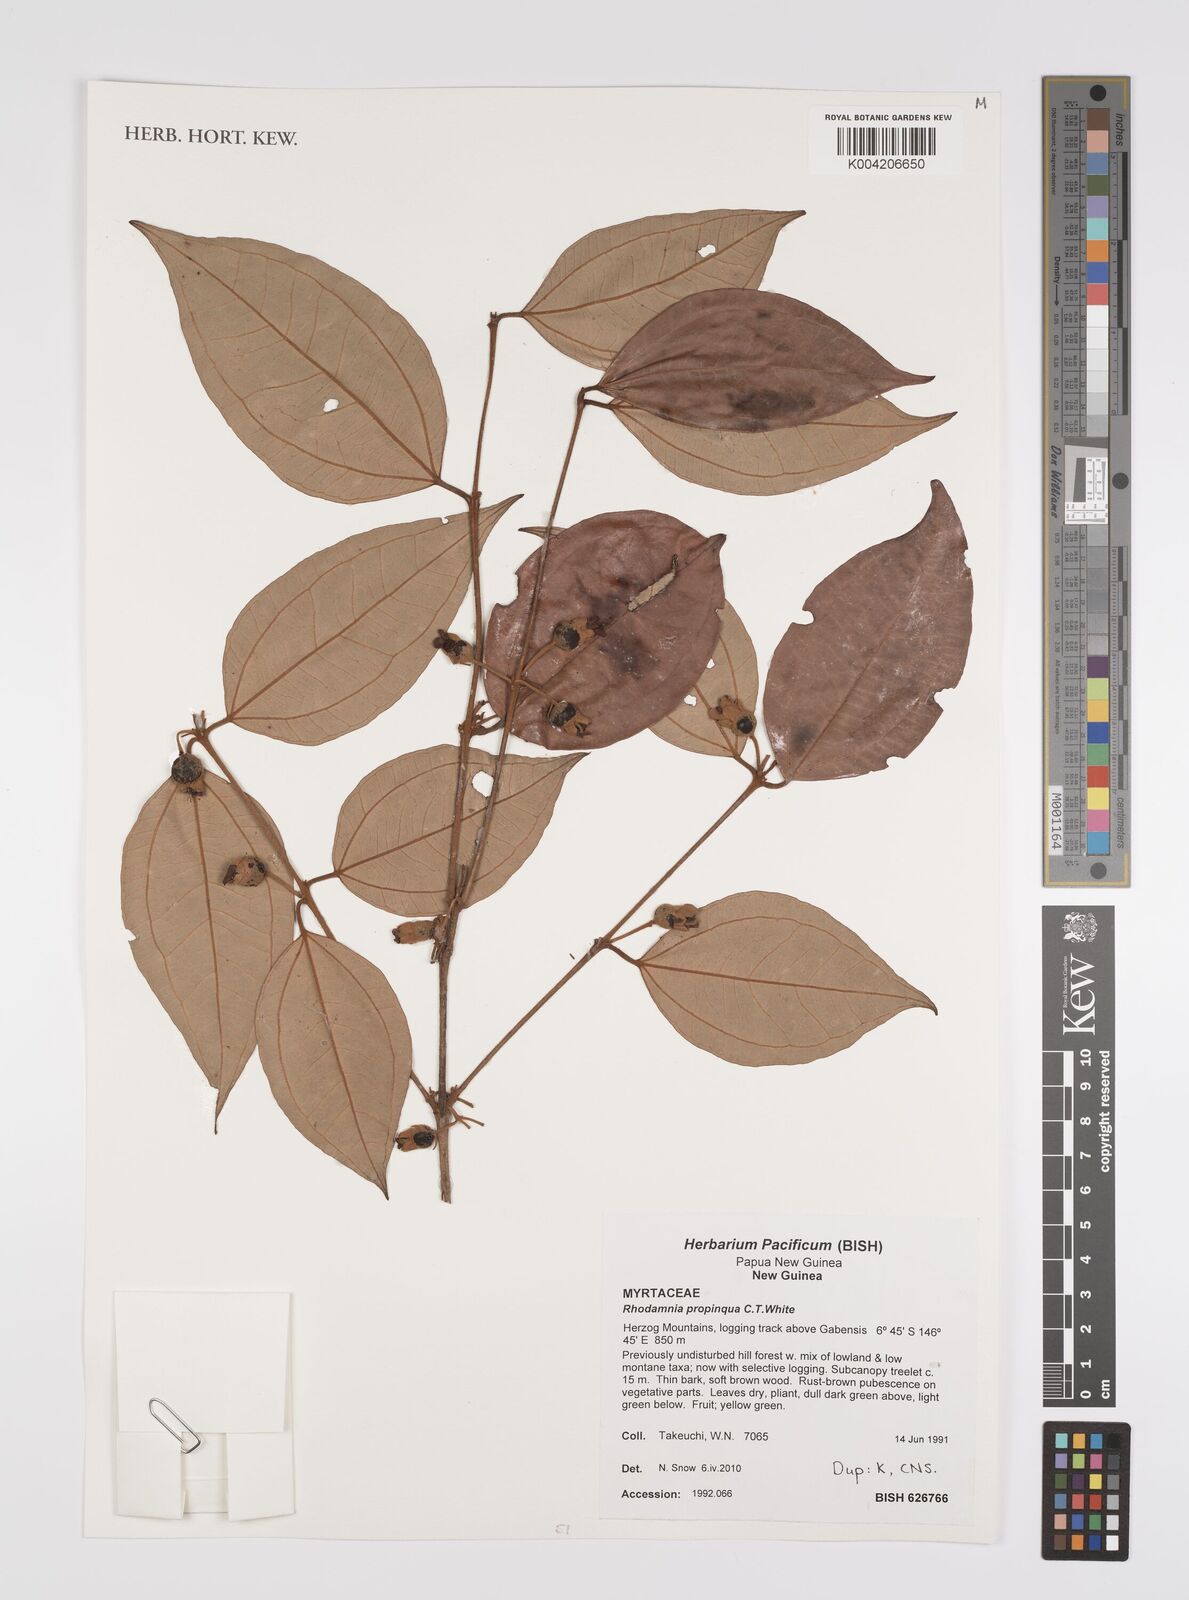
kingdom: Plantae
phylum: Tracheophyta
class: Magnoliopsida
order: Myrtales
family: Myrtaceae
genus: Rhodamnia
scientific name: Rhodamnia blairiana
